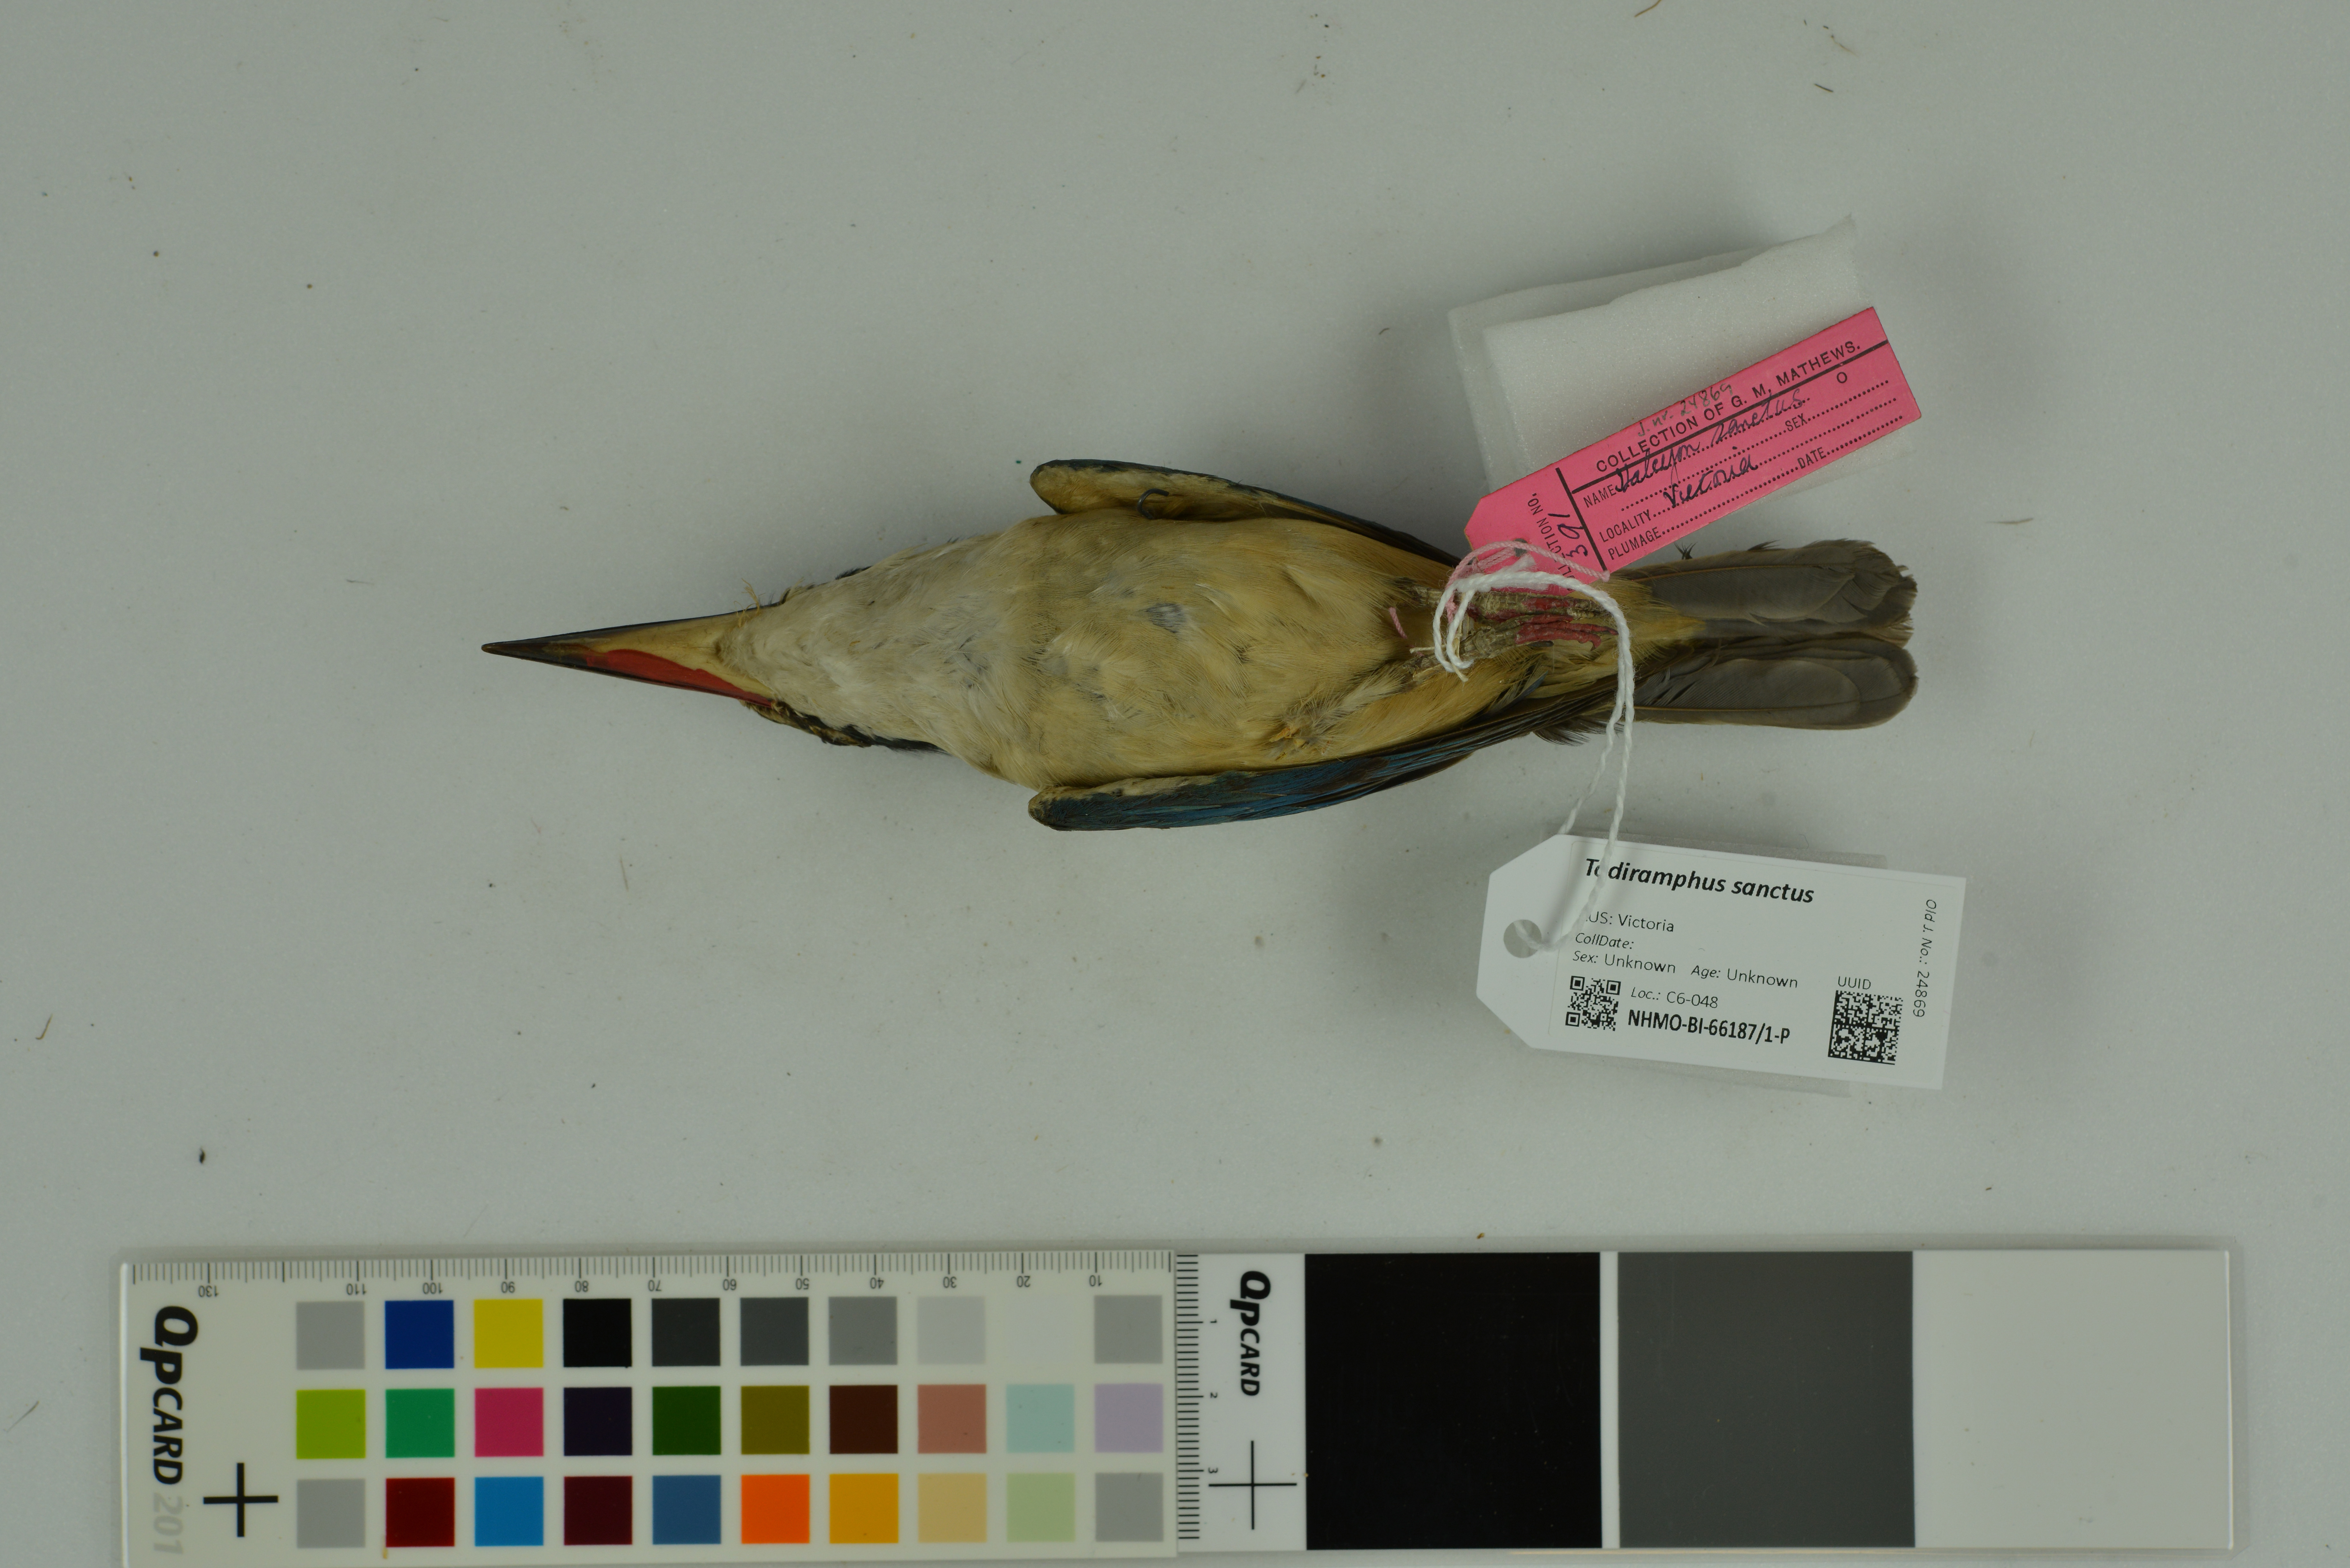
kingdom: Animalia
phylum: Chordata
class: Aves
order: Coraciiformes
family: Alcedinidae
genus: Todiramphus
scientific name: Todiramphus sanctus
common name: Sacred kingfisher
